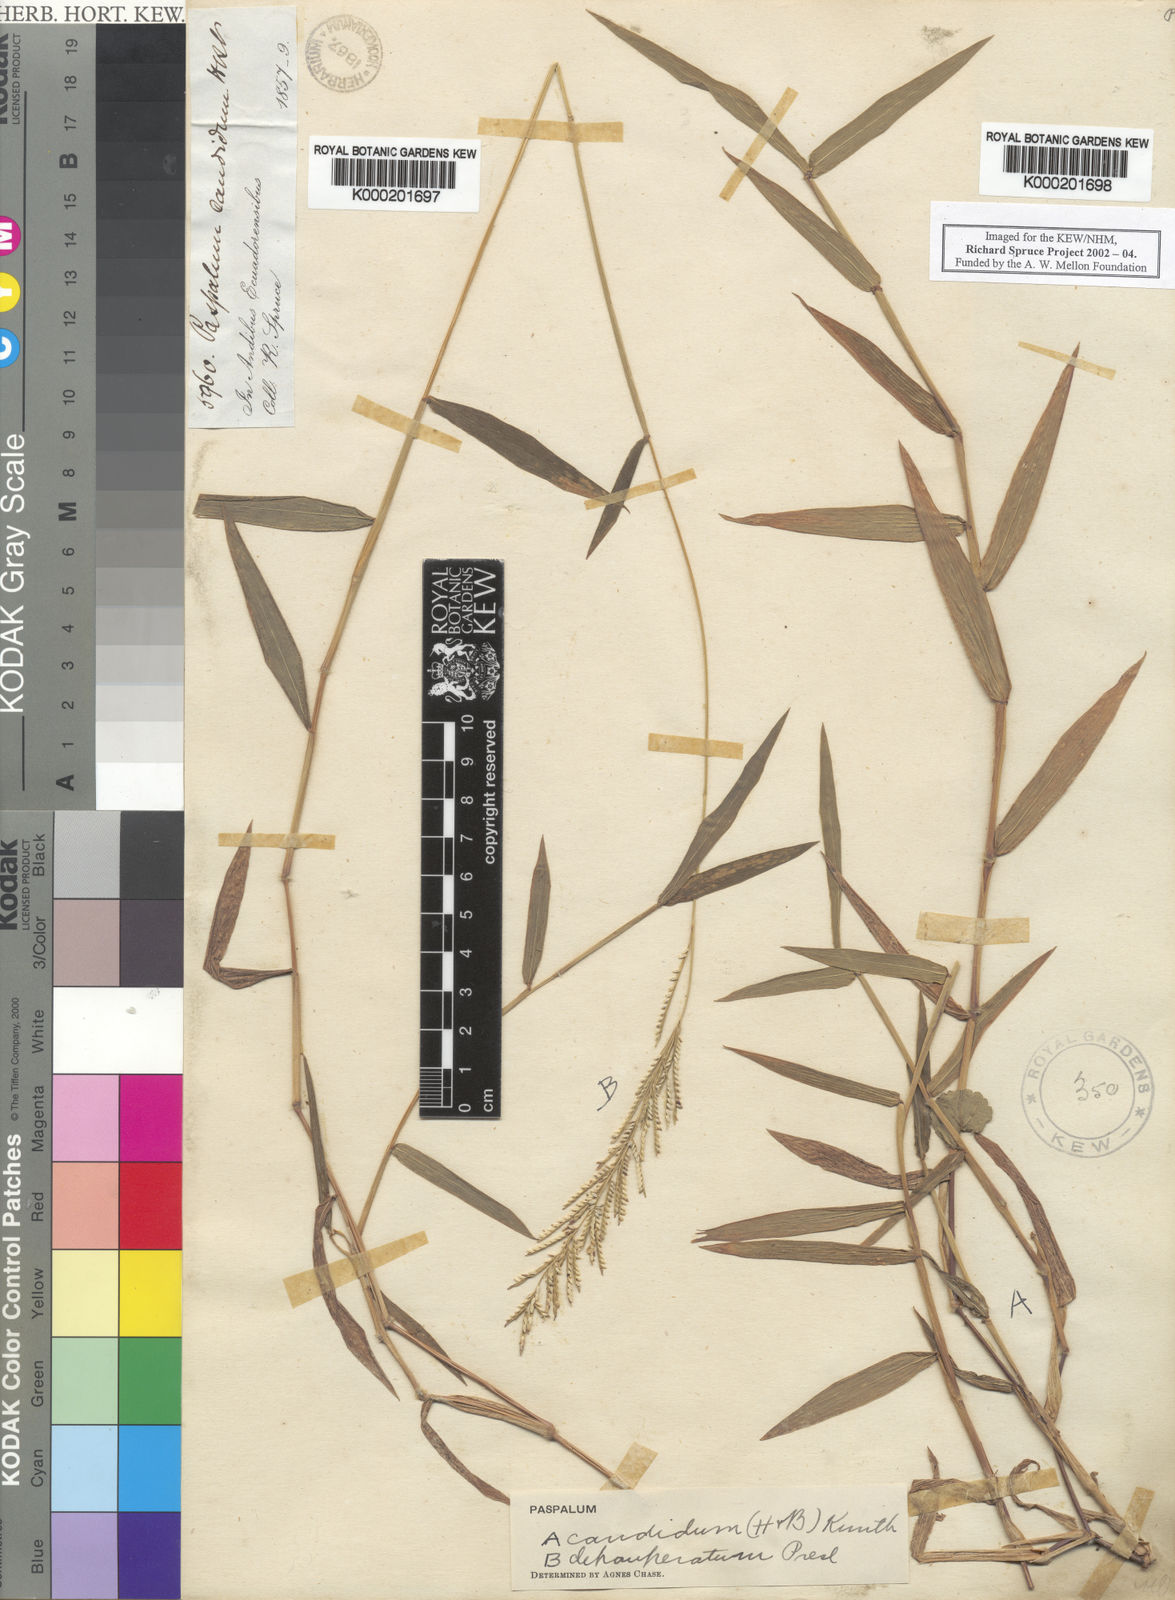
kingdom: Plantae
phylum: Tracheophyta
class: Liliopsida
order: Poales
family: Poaceae
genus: Paspalum
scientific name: Paspalum
